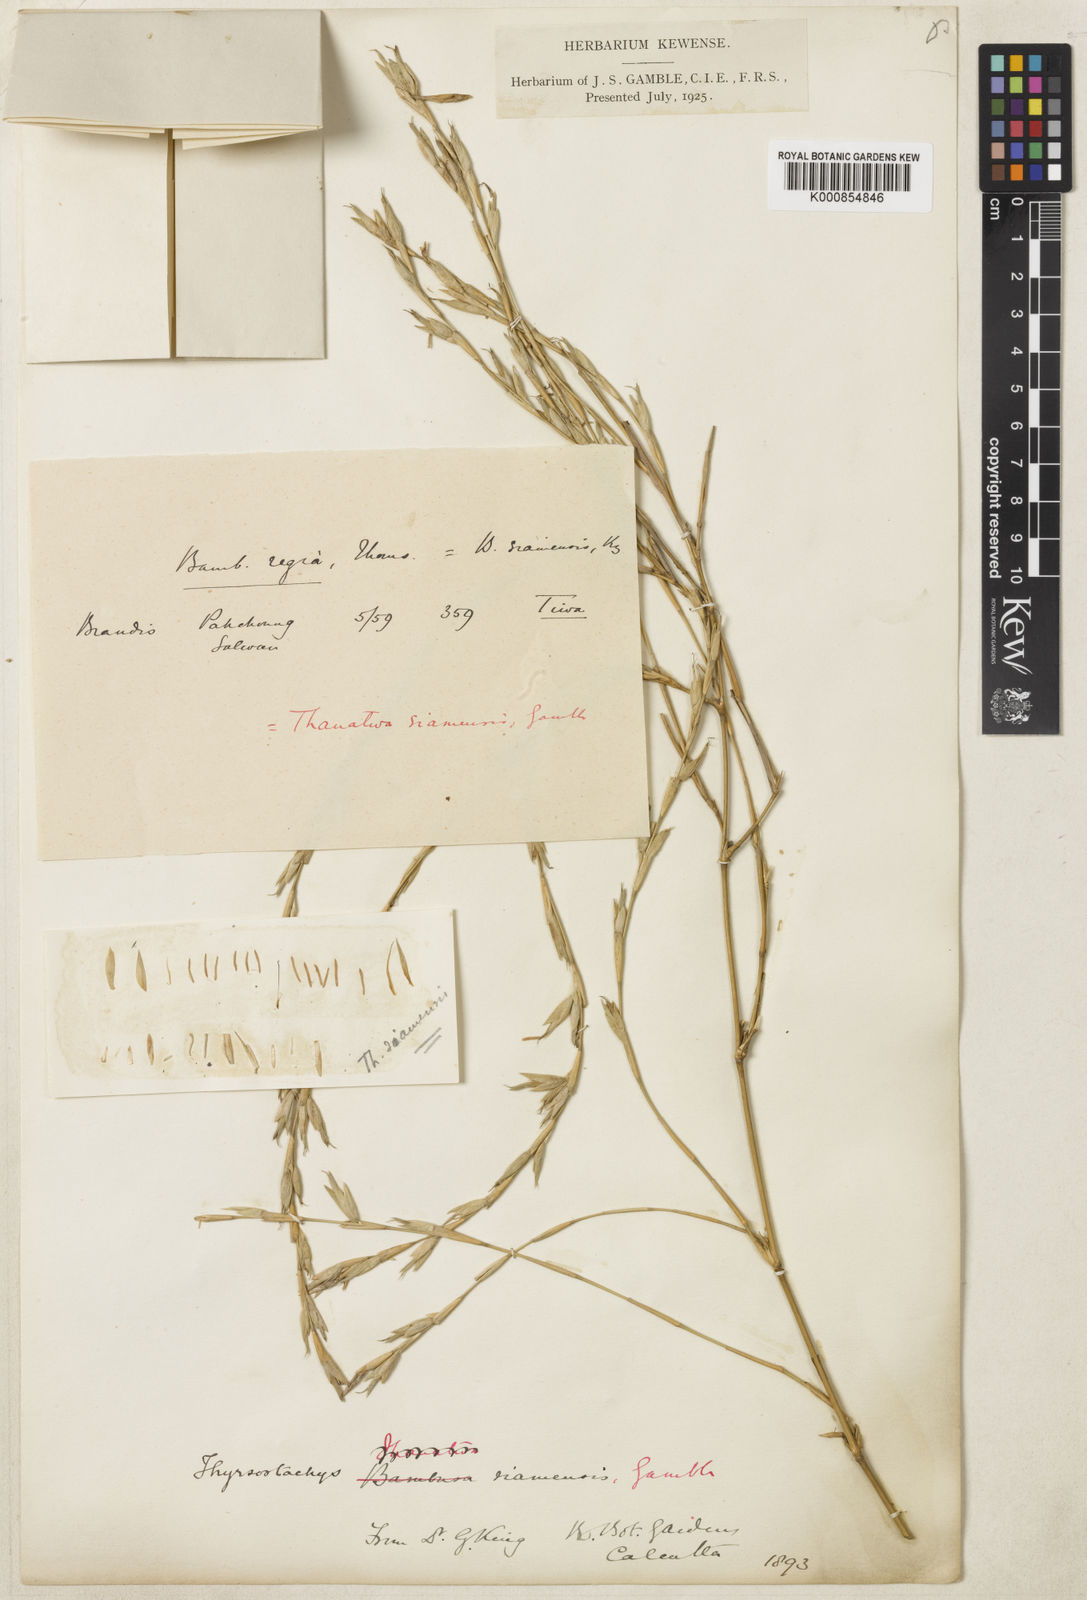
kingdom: Plantae
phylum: Tracheophyta
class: Liliopsida
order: Poales
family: Poaceae
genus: Thyrsostachys
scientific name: Thyrsostachys siamensis
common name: Thailand bamboo
